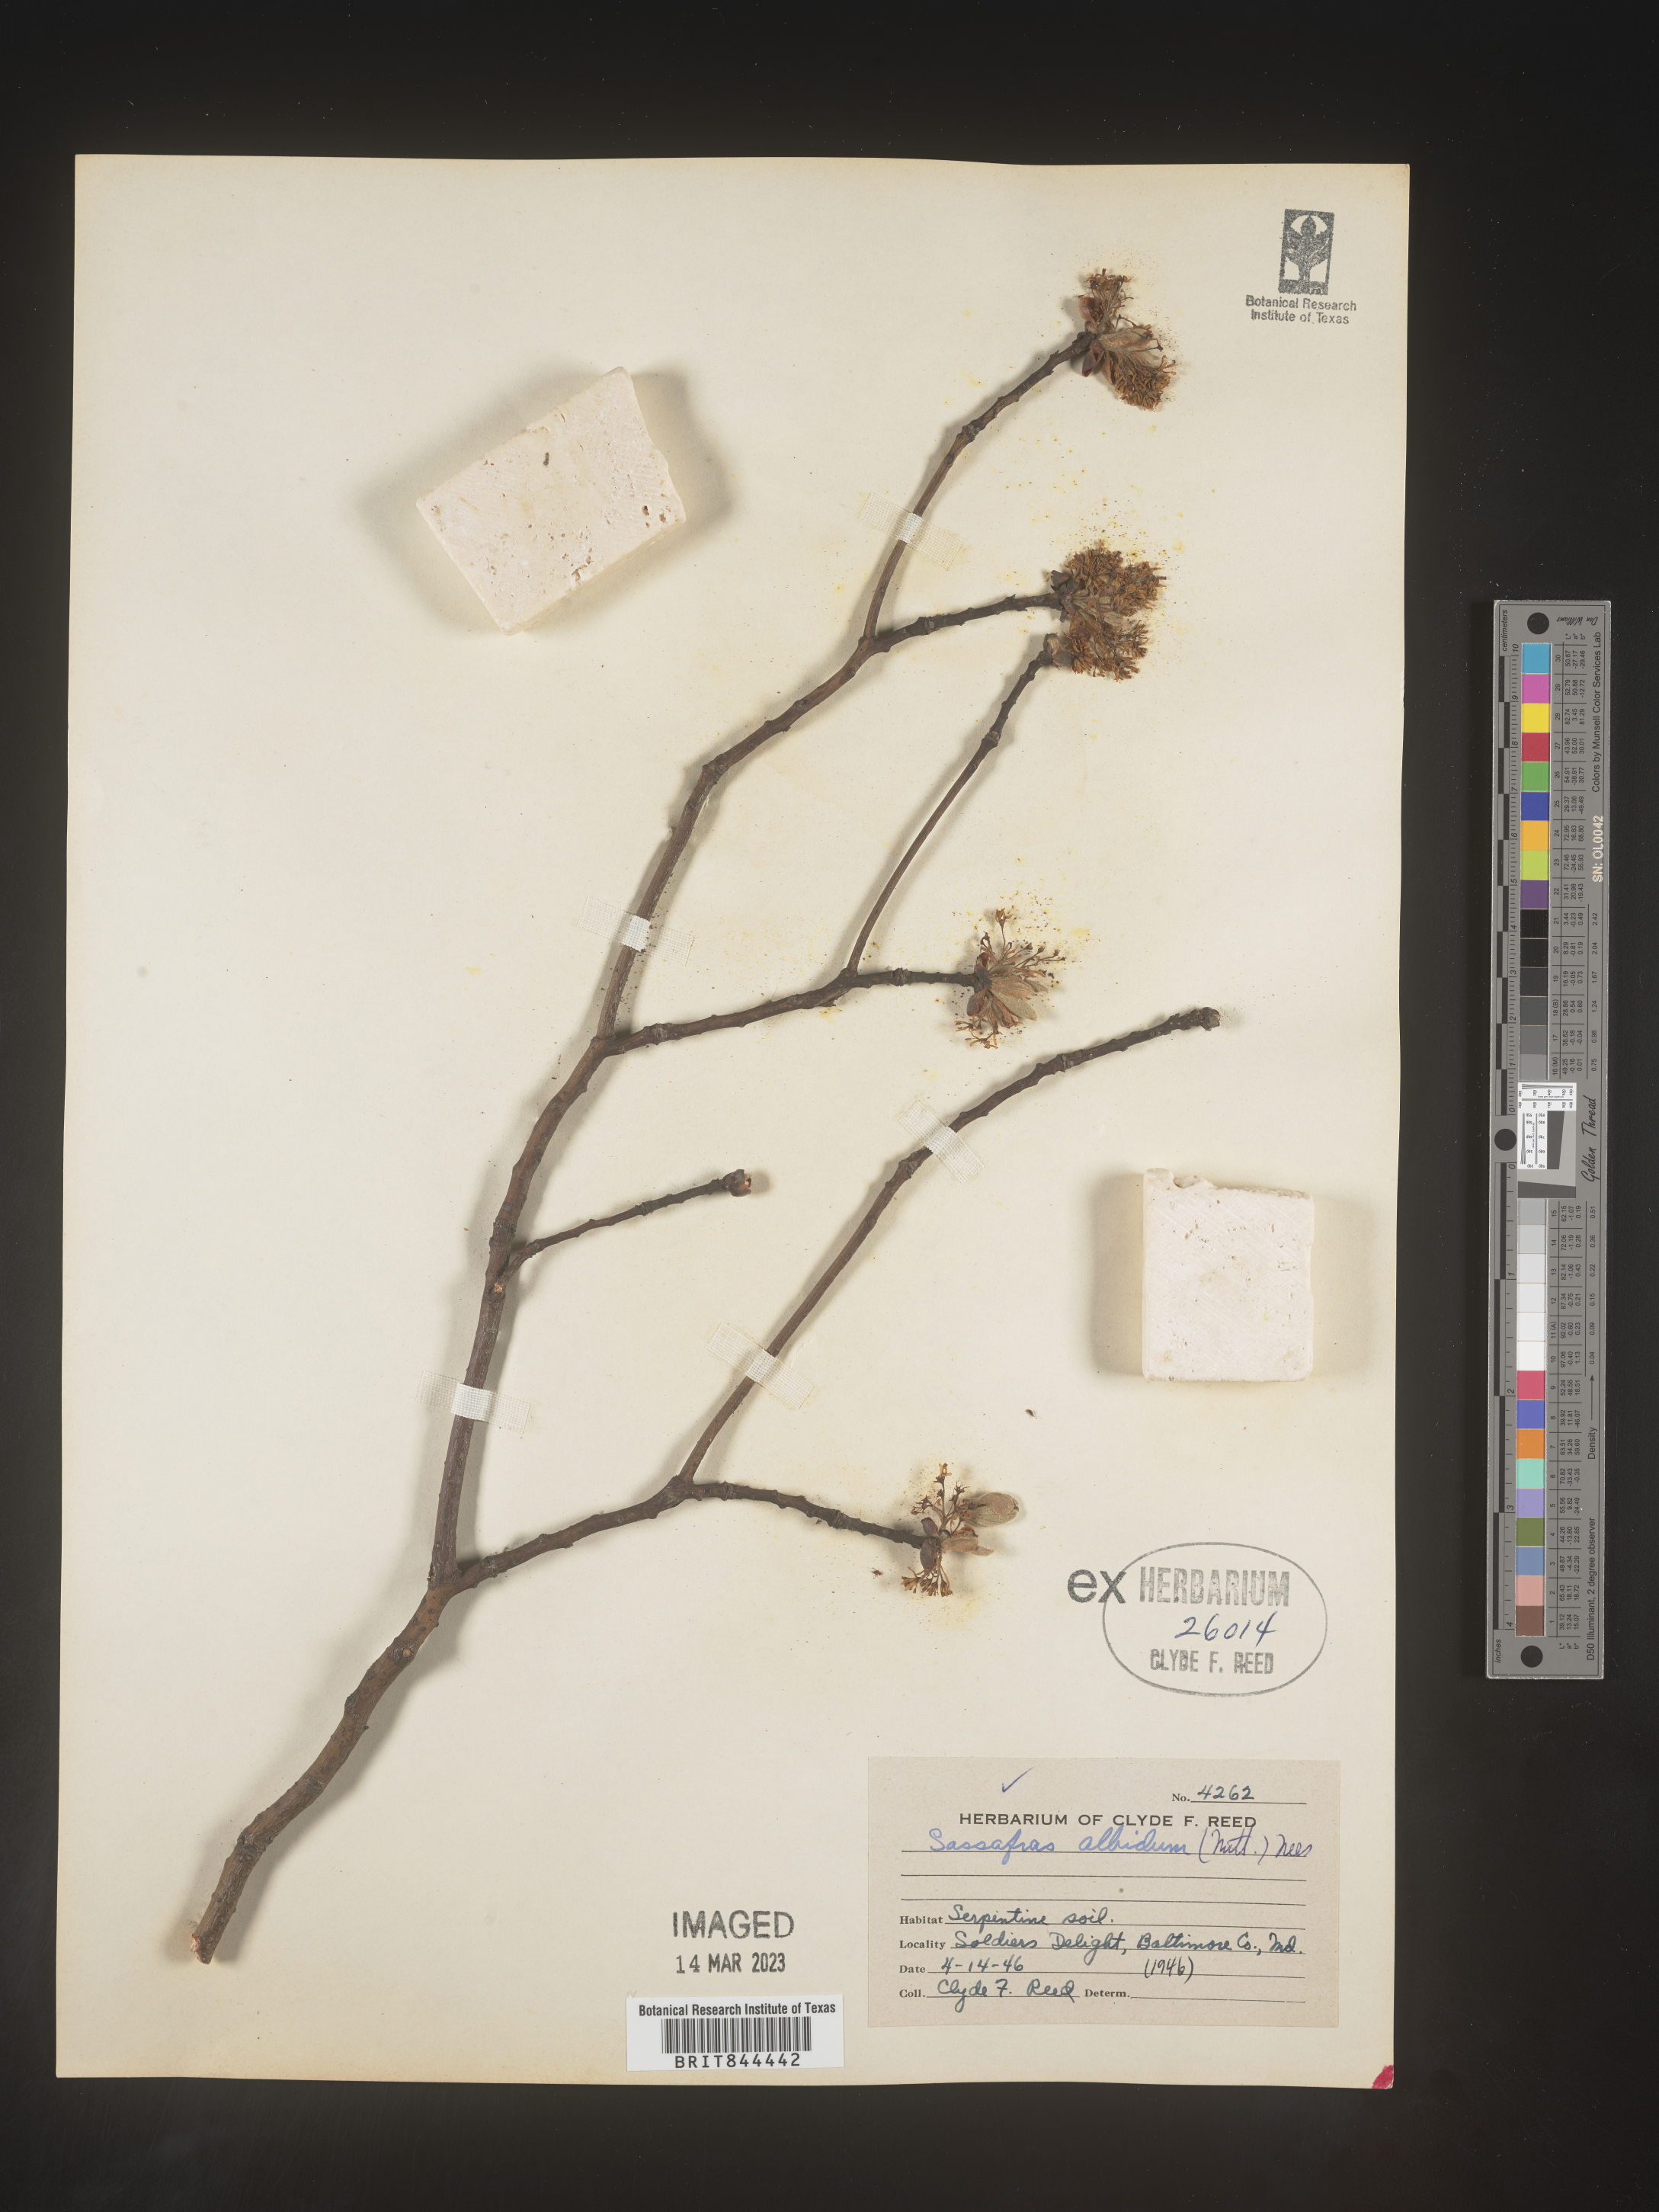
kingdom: Plantae
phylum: Tracheophyta
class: Magnoliopsida
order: Laurales
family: Lauraceae
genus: Sassafras
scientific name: Sassafras albidum
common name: Sassafras
